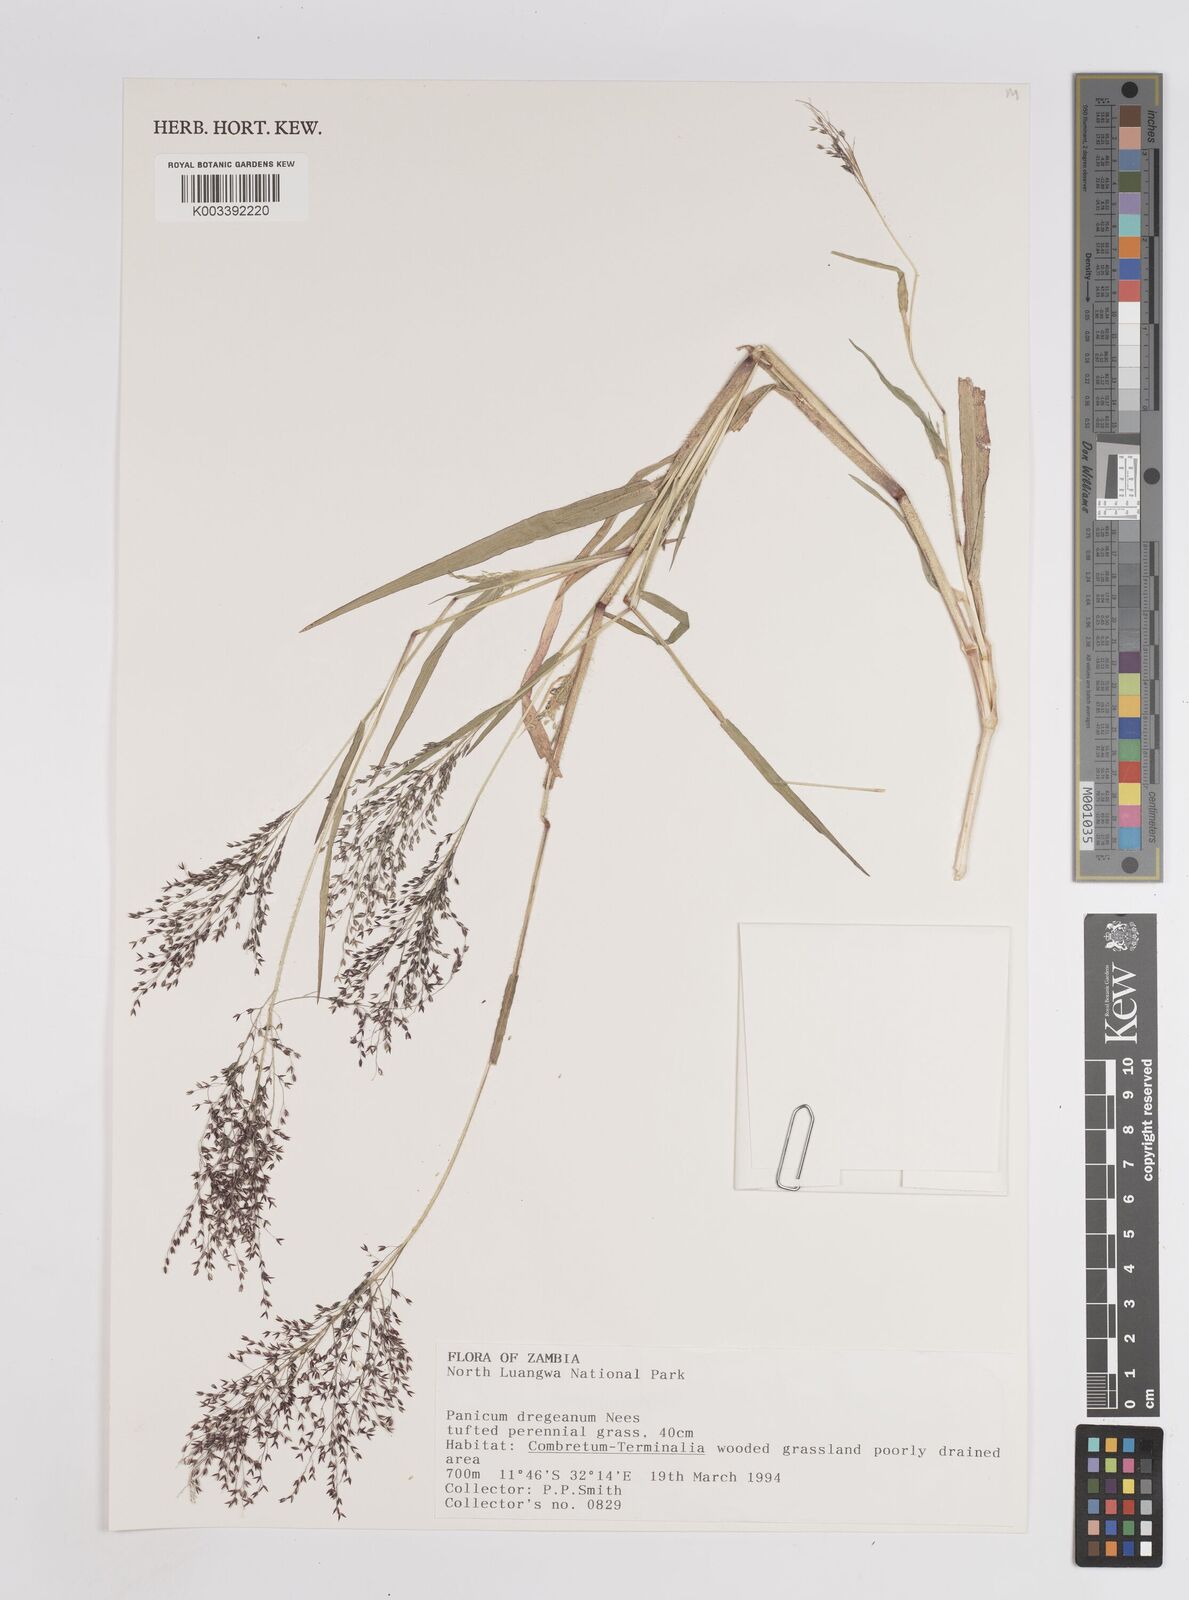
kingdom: Plantae
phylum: Tracheophyta
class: Liliopsida
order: Poales
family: Poaceae
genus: Panicum
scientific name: Panicum dregeanum
